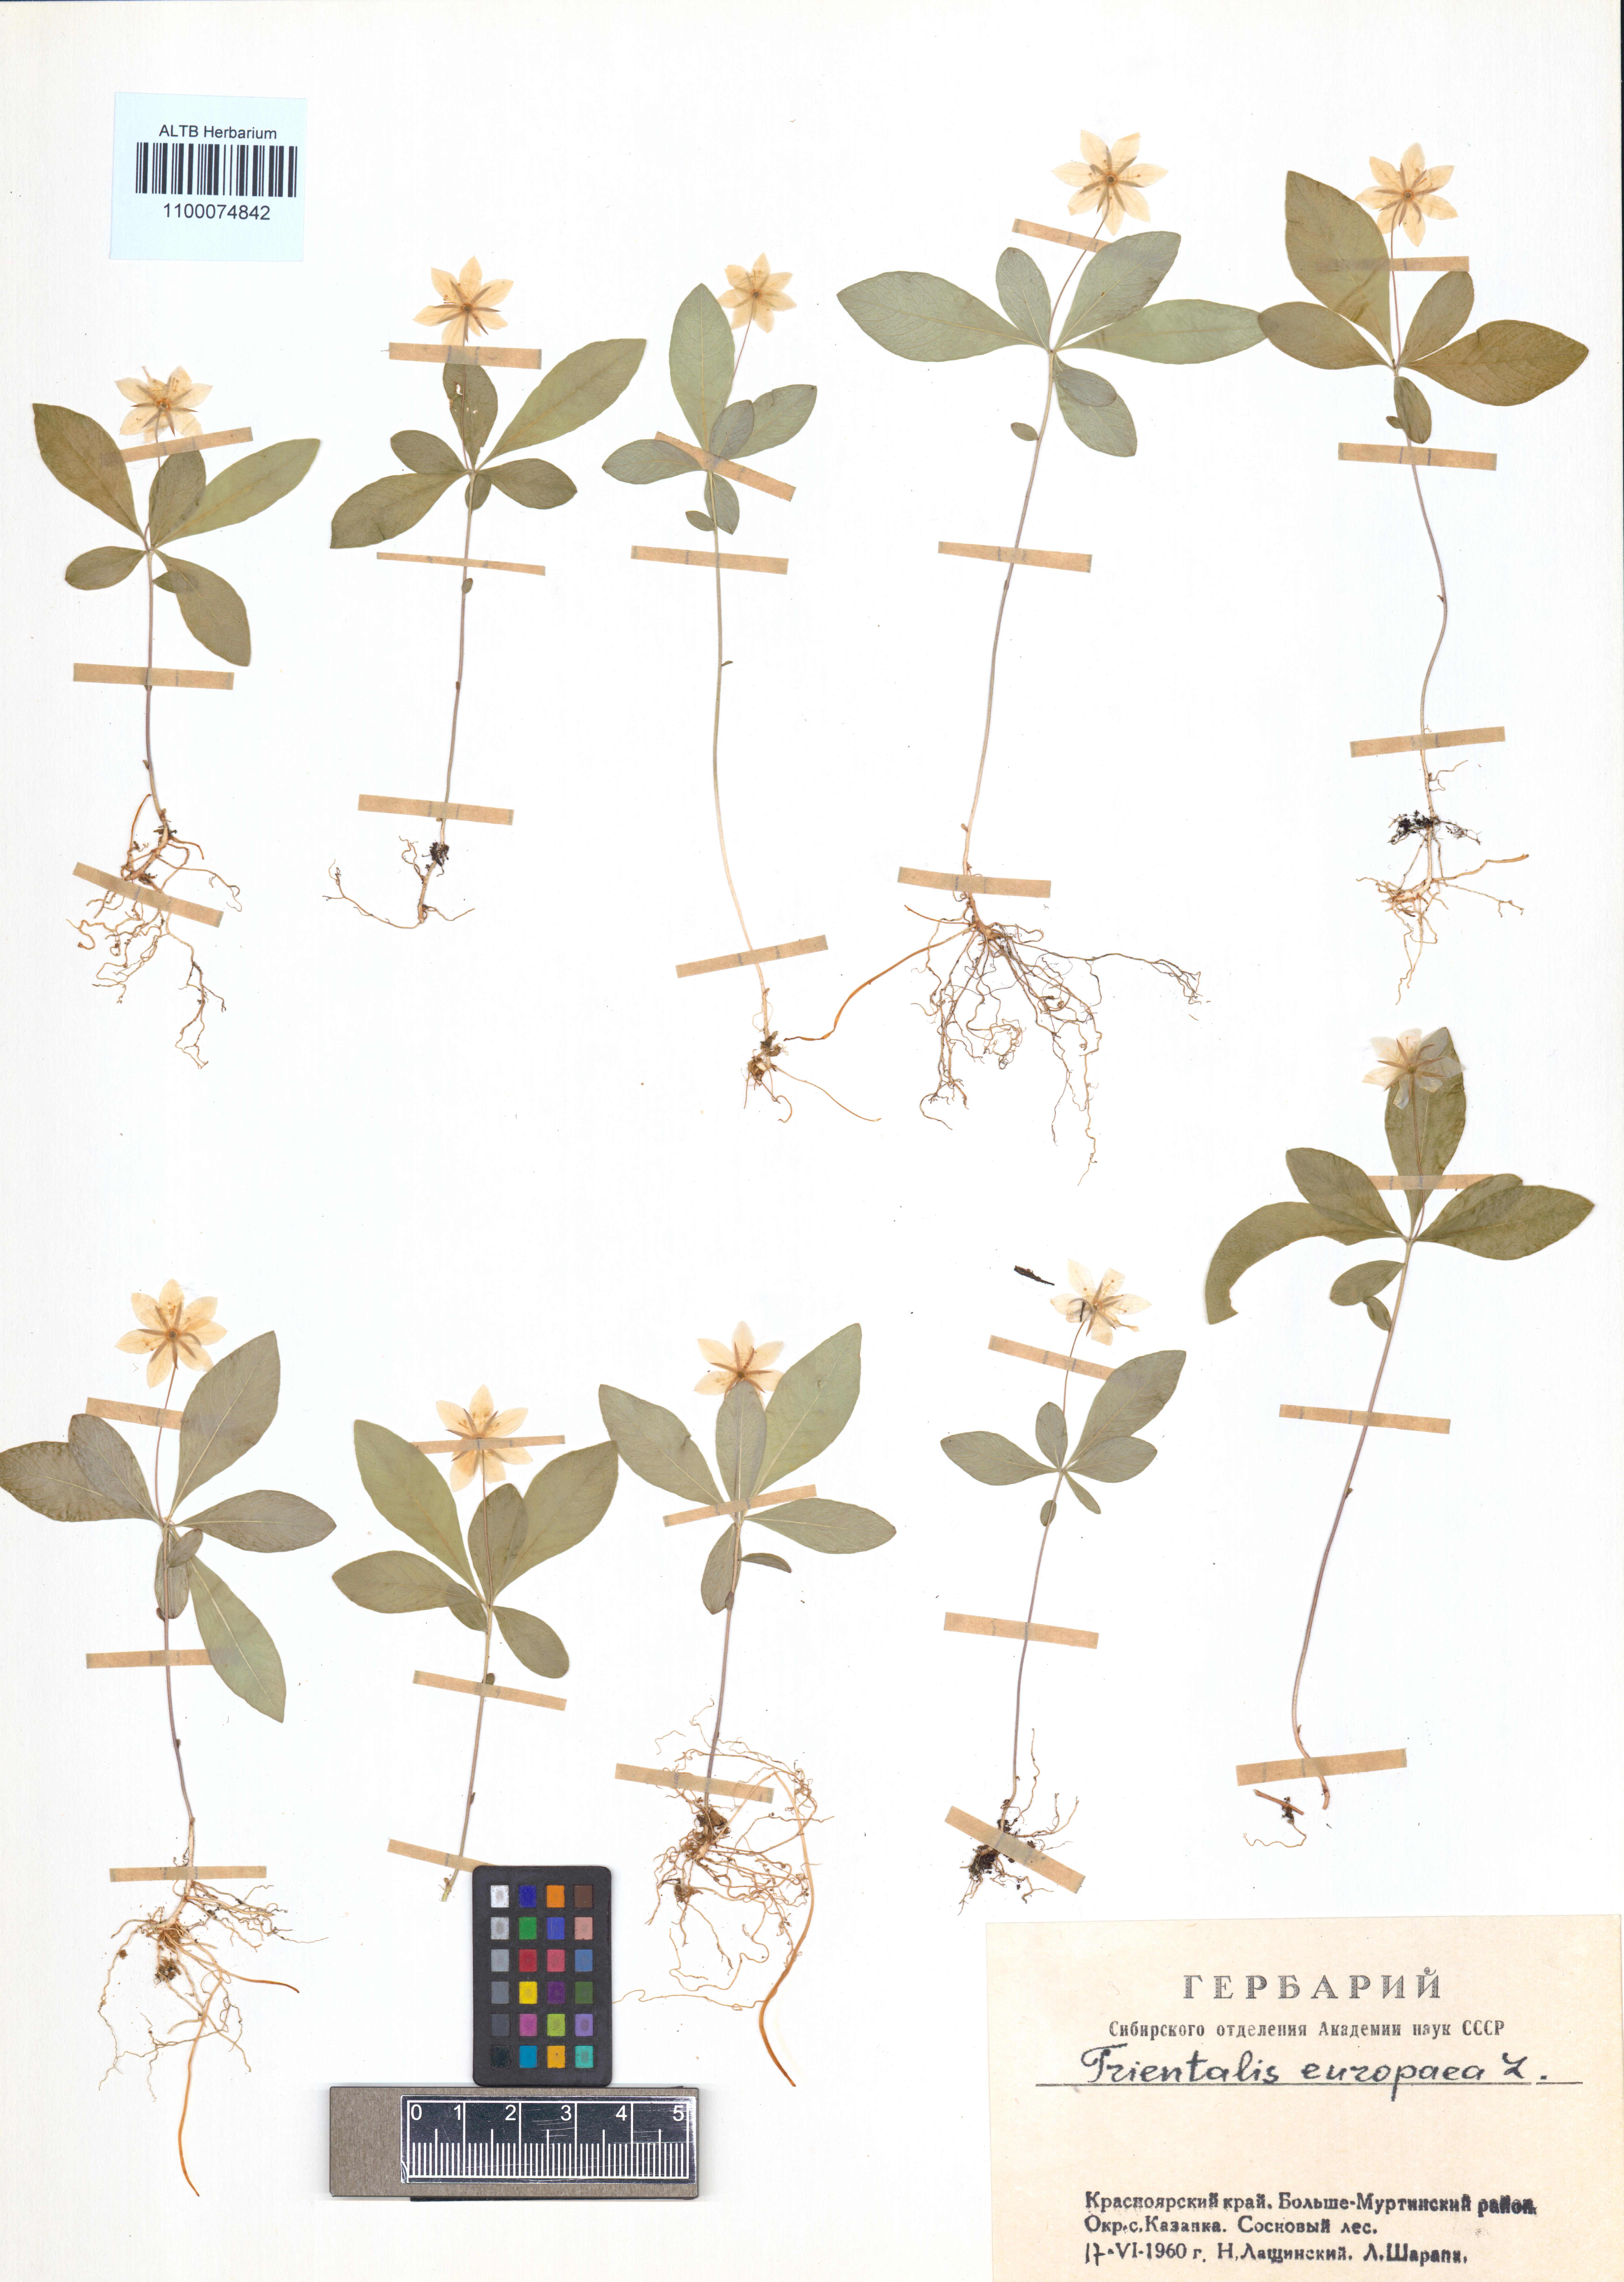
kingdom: Plantae
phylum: Tracheophyta
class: Magnoliopsida
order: Ericales
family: Primulaceae
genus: Lysimachia
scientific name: Lysimachia europaea
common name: Arctic starflower
